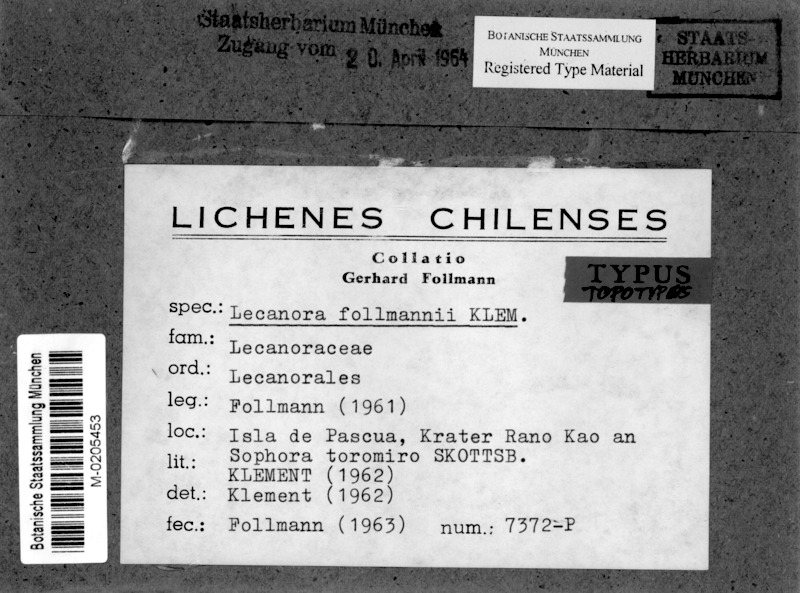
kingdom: Fungi
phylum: Ascomycota
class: Lecanoromycetes
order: Lecanorales
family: Lecanoraceae
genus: Lecanora
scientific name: Lecanora kauaiensis
